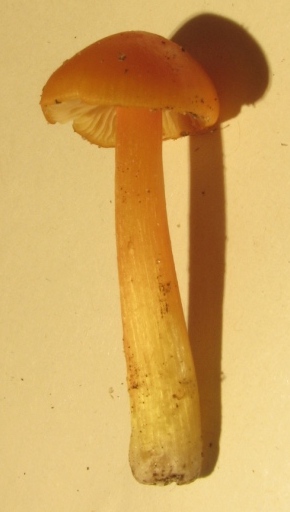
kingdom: Fungi
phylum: Basidiomycota
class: Agaricomycetes
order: Agaricales
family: Hygrophoraceae
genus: Hygrocybe
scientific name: Hygrocybe acutoconica
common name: spidspuklet vokshat
